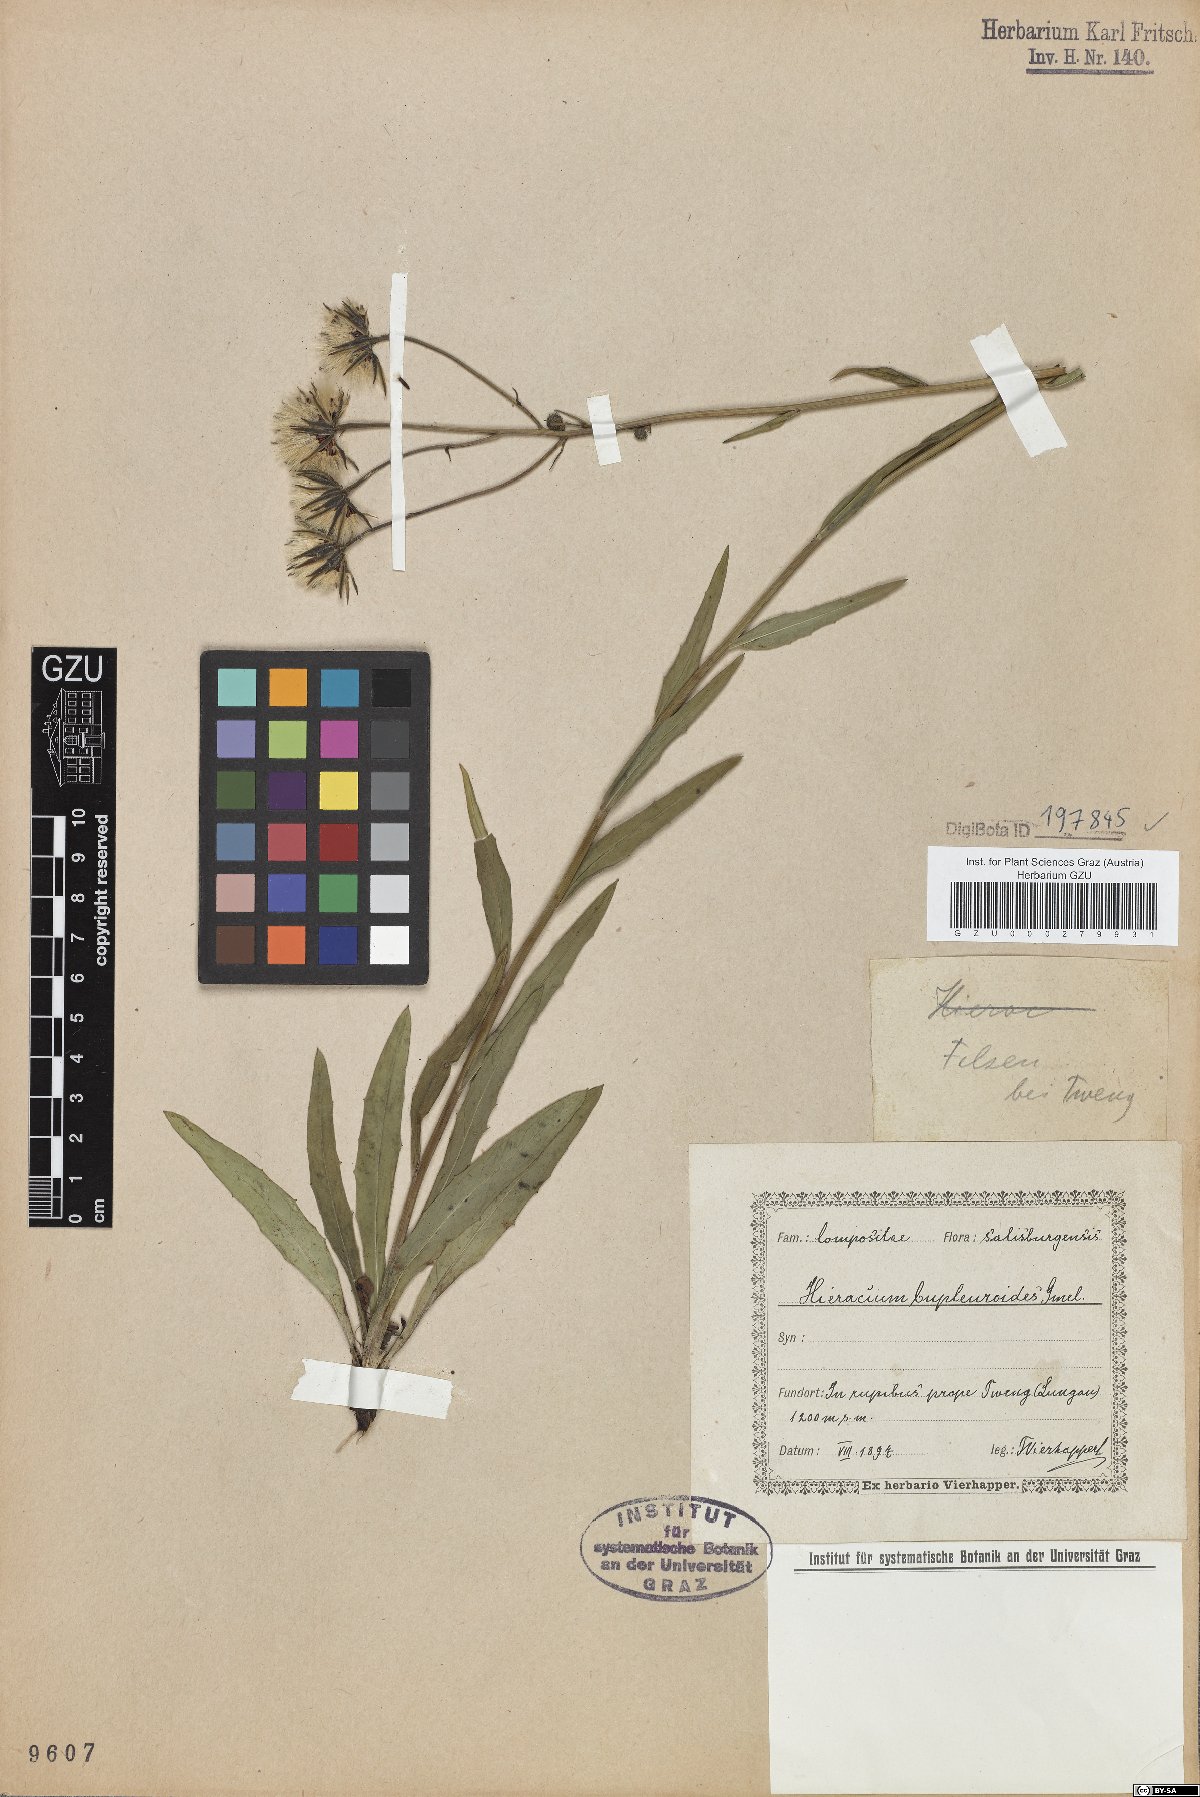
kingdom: Plantae
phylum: Tracheophyta
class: Magnoliopsida
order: Asterales
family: Asteraceae
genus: Hieracium
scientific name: Hieracium bupleuroides
